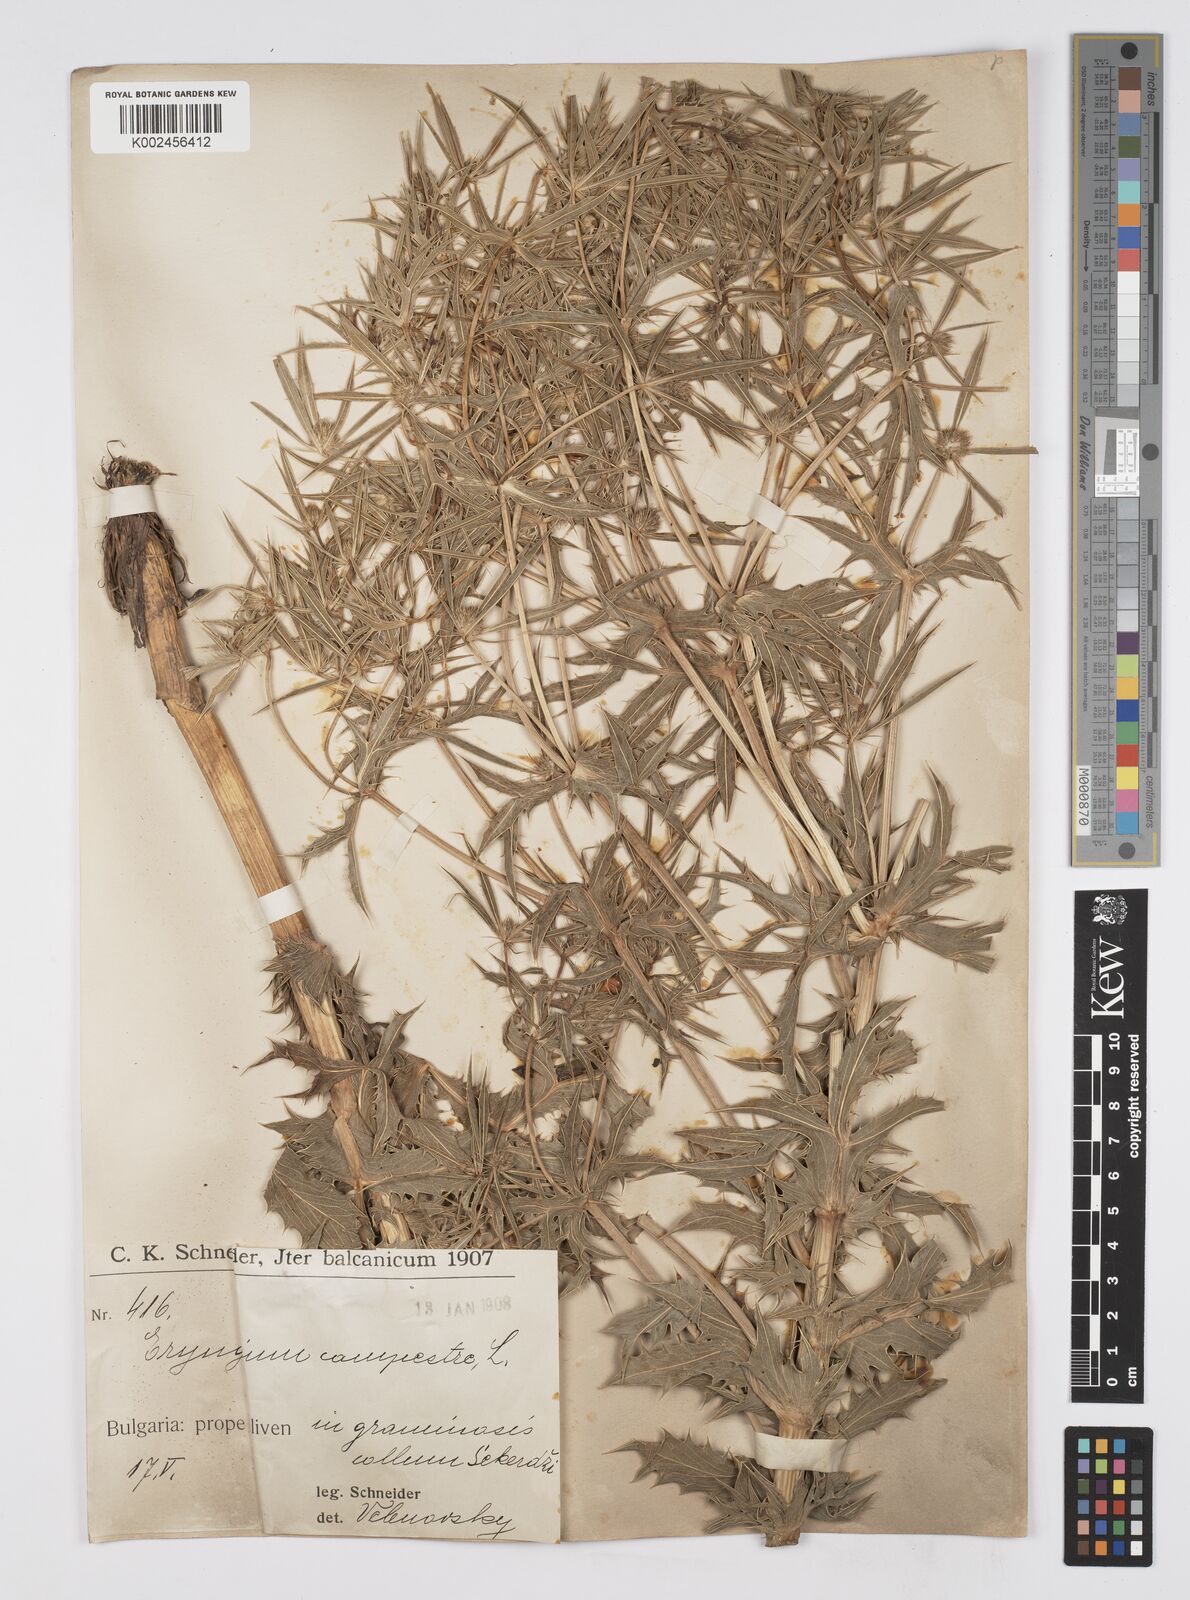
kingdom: Plantae
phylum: Tracheophyta
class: Magnoliopsida
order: Apiales
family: Apiaceae
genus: Eryngium
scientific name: Eryngium campestre
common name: Field eryngo
